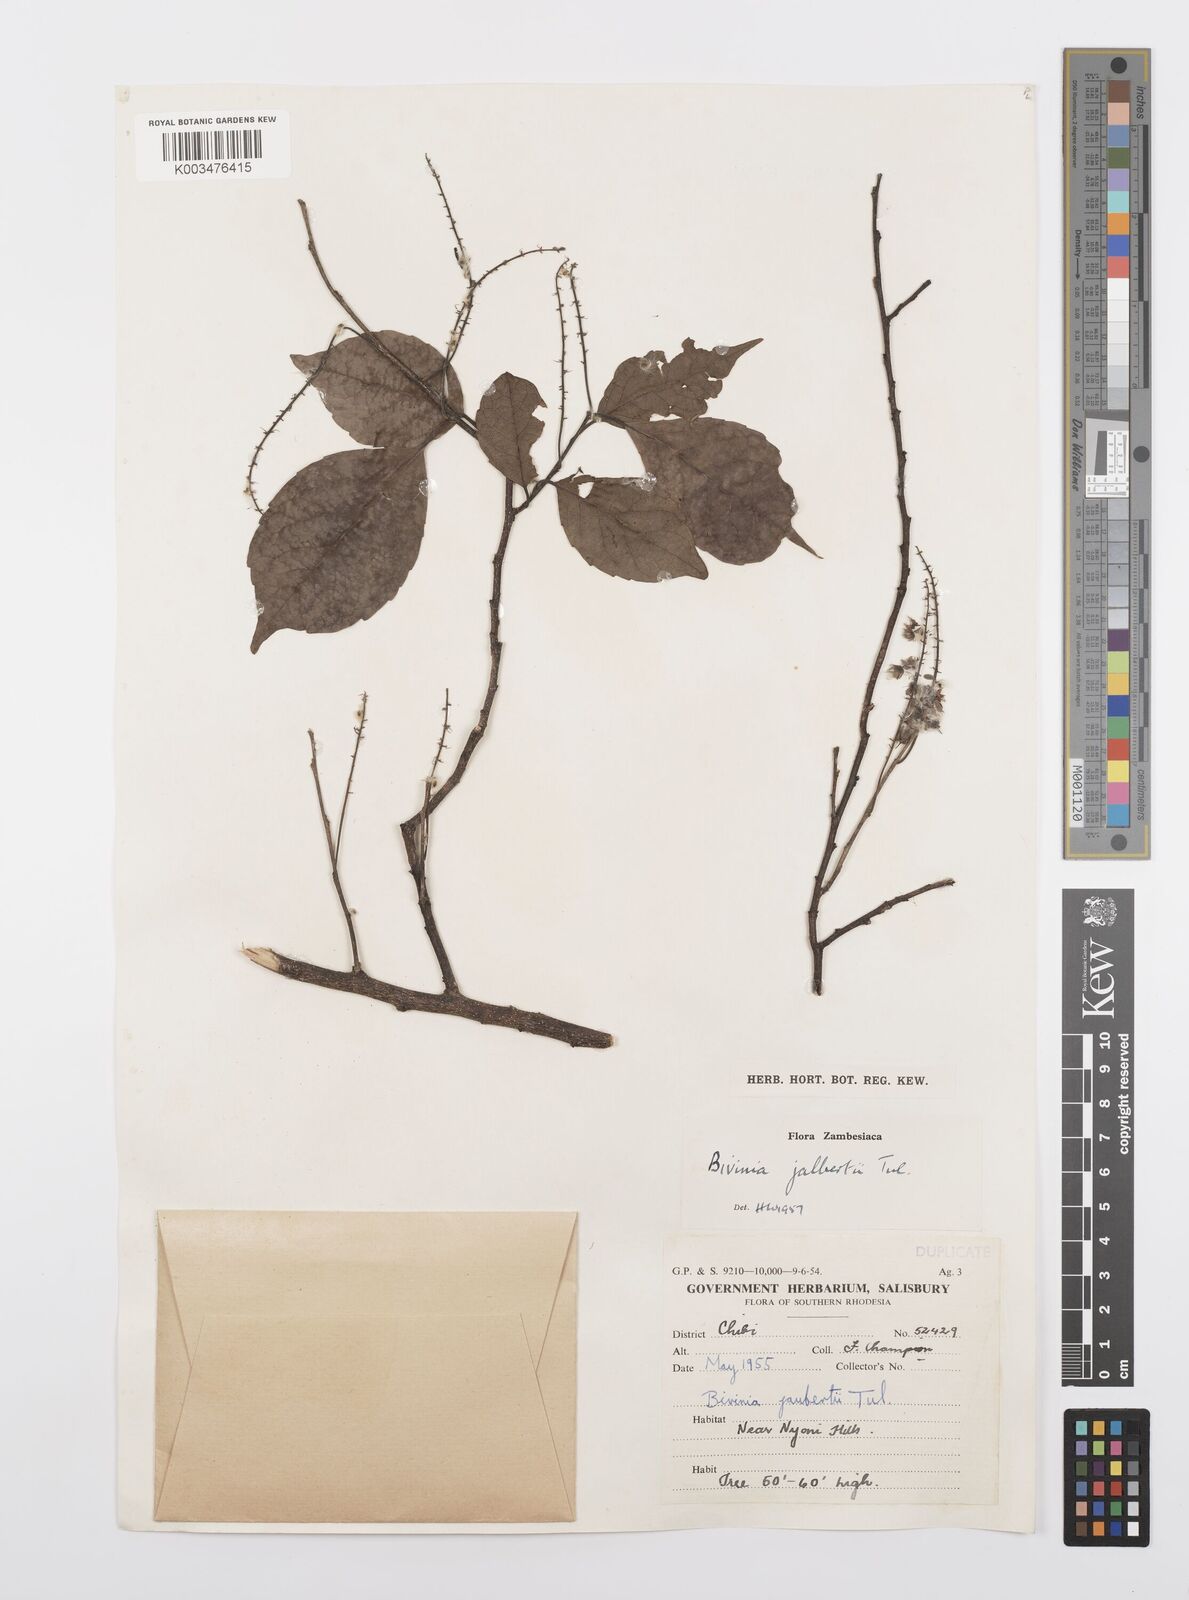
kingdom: Plantae
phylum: Tracheophyta
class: Magnoliopsida
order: Malpighiales
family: Salicaceae
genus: Bivinia
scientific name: Bivinia jalbertii
